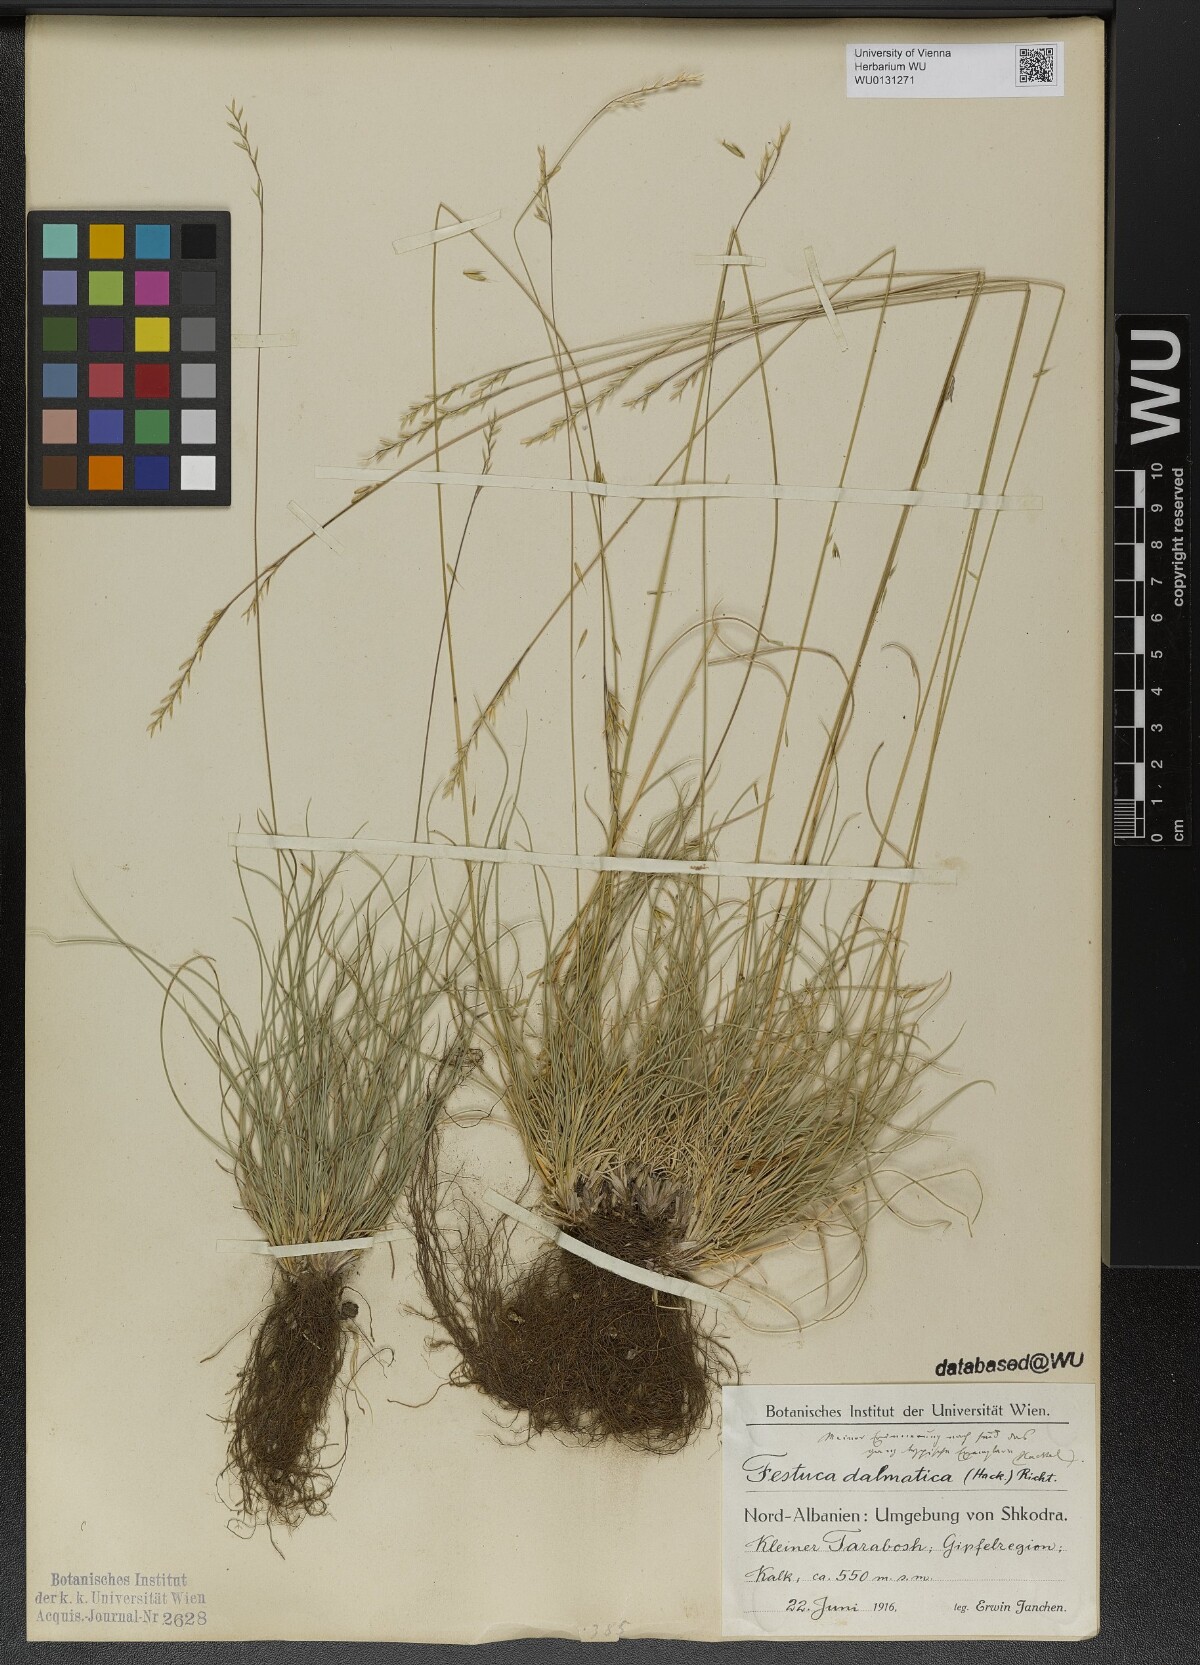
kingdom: Plantae
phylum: Tracheophyta
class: Liliopsida
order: Poales
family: Poaceae
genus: Festuca
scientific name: Festuca dalmatica
